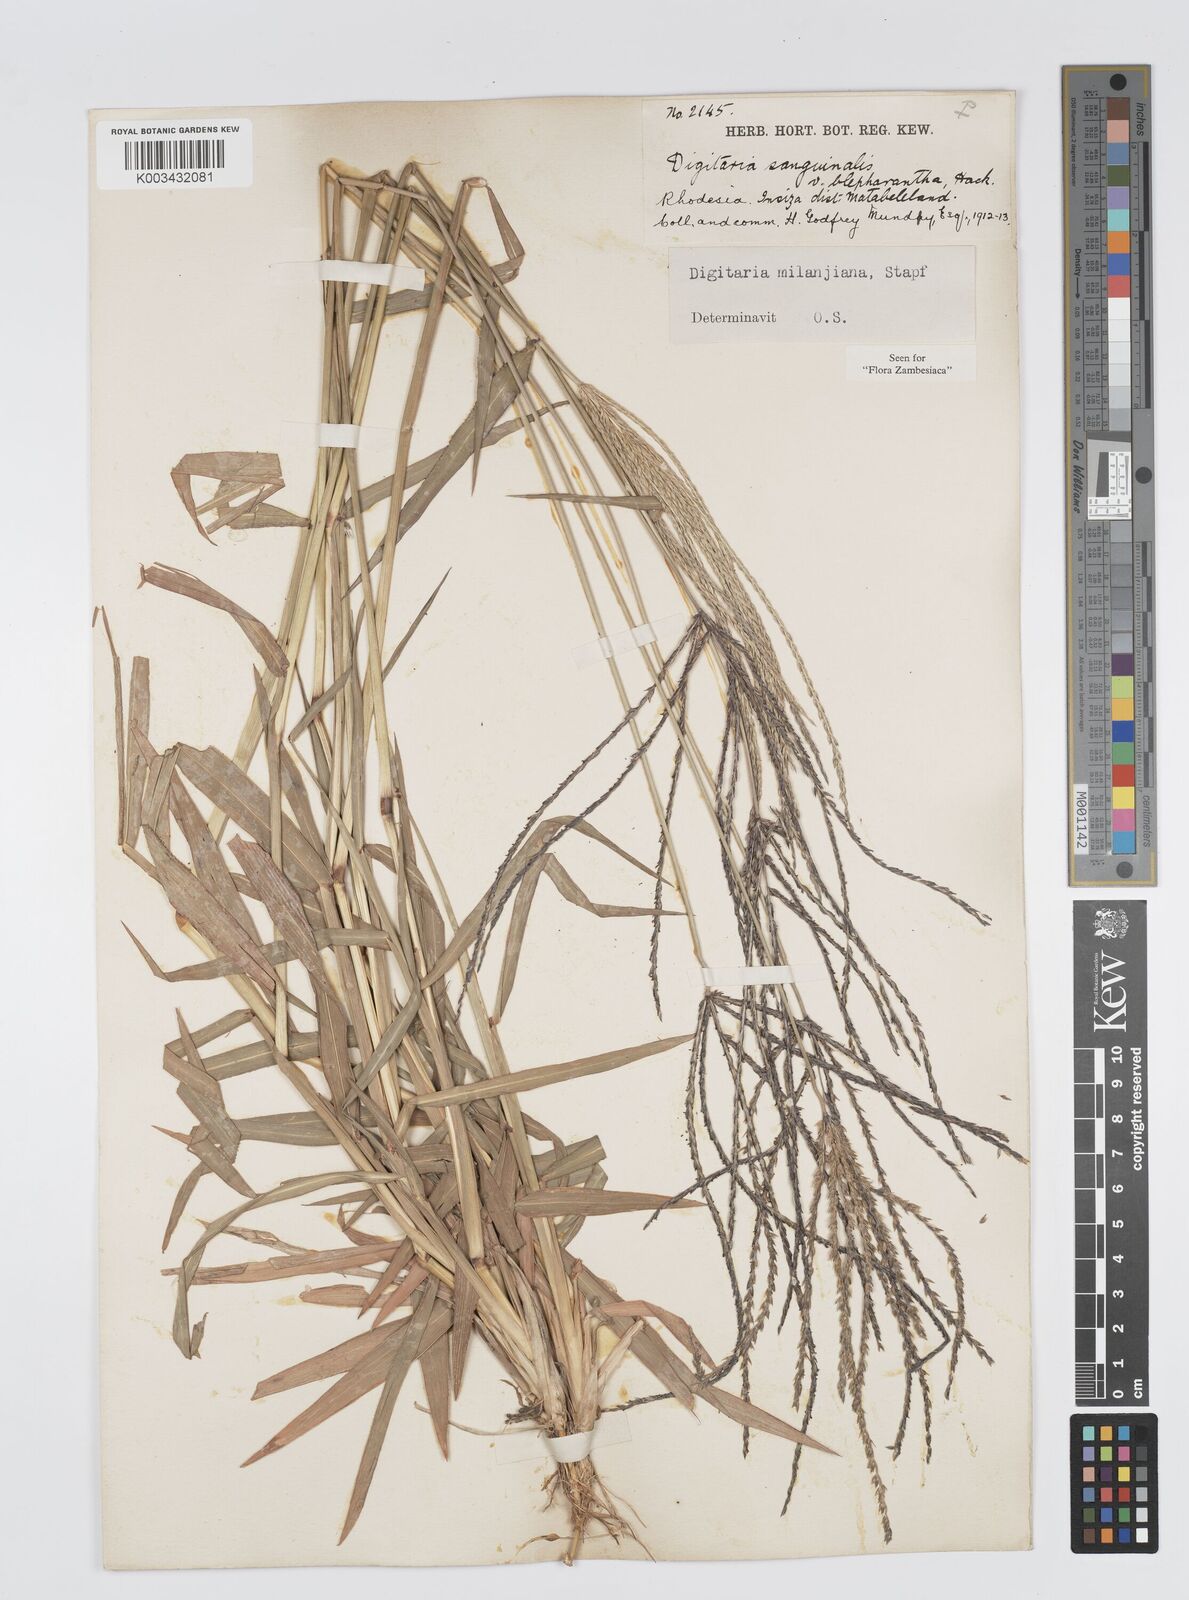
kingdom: Plantae
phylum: Tracheophyta
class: Liliopsida
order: Poales
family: Poaceae
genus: Digitaria
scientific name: Digitaria milanjiana
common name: Madagascar crabgrass
